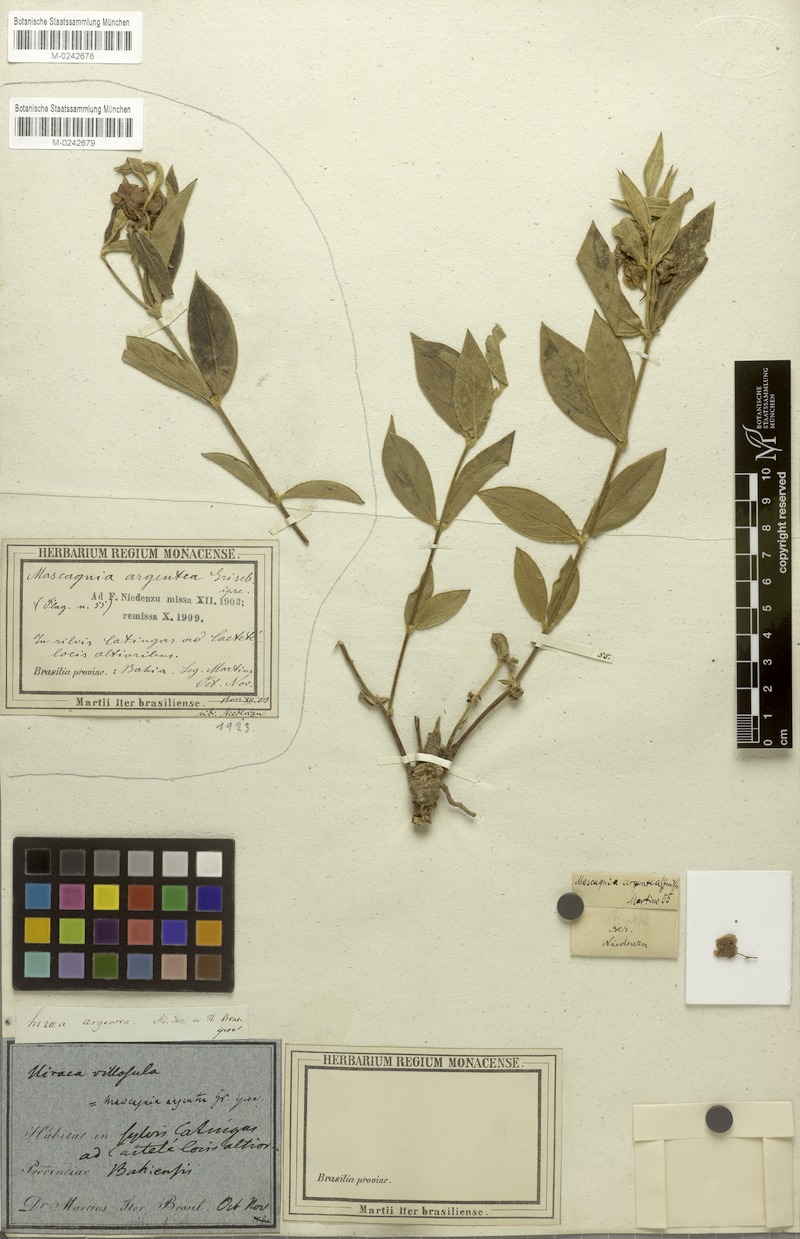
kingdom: Plantae
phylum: Tracheophyta
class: Magnoliopsida
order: Malpighiales
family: Malpighiaceae
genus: Glicophyllum
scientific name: Glicophyllum jussieuanum
